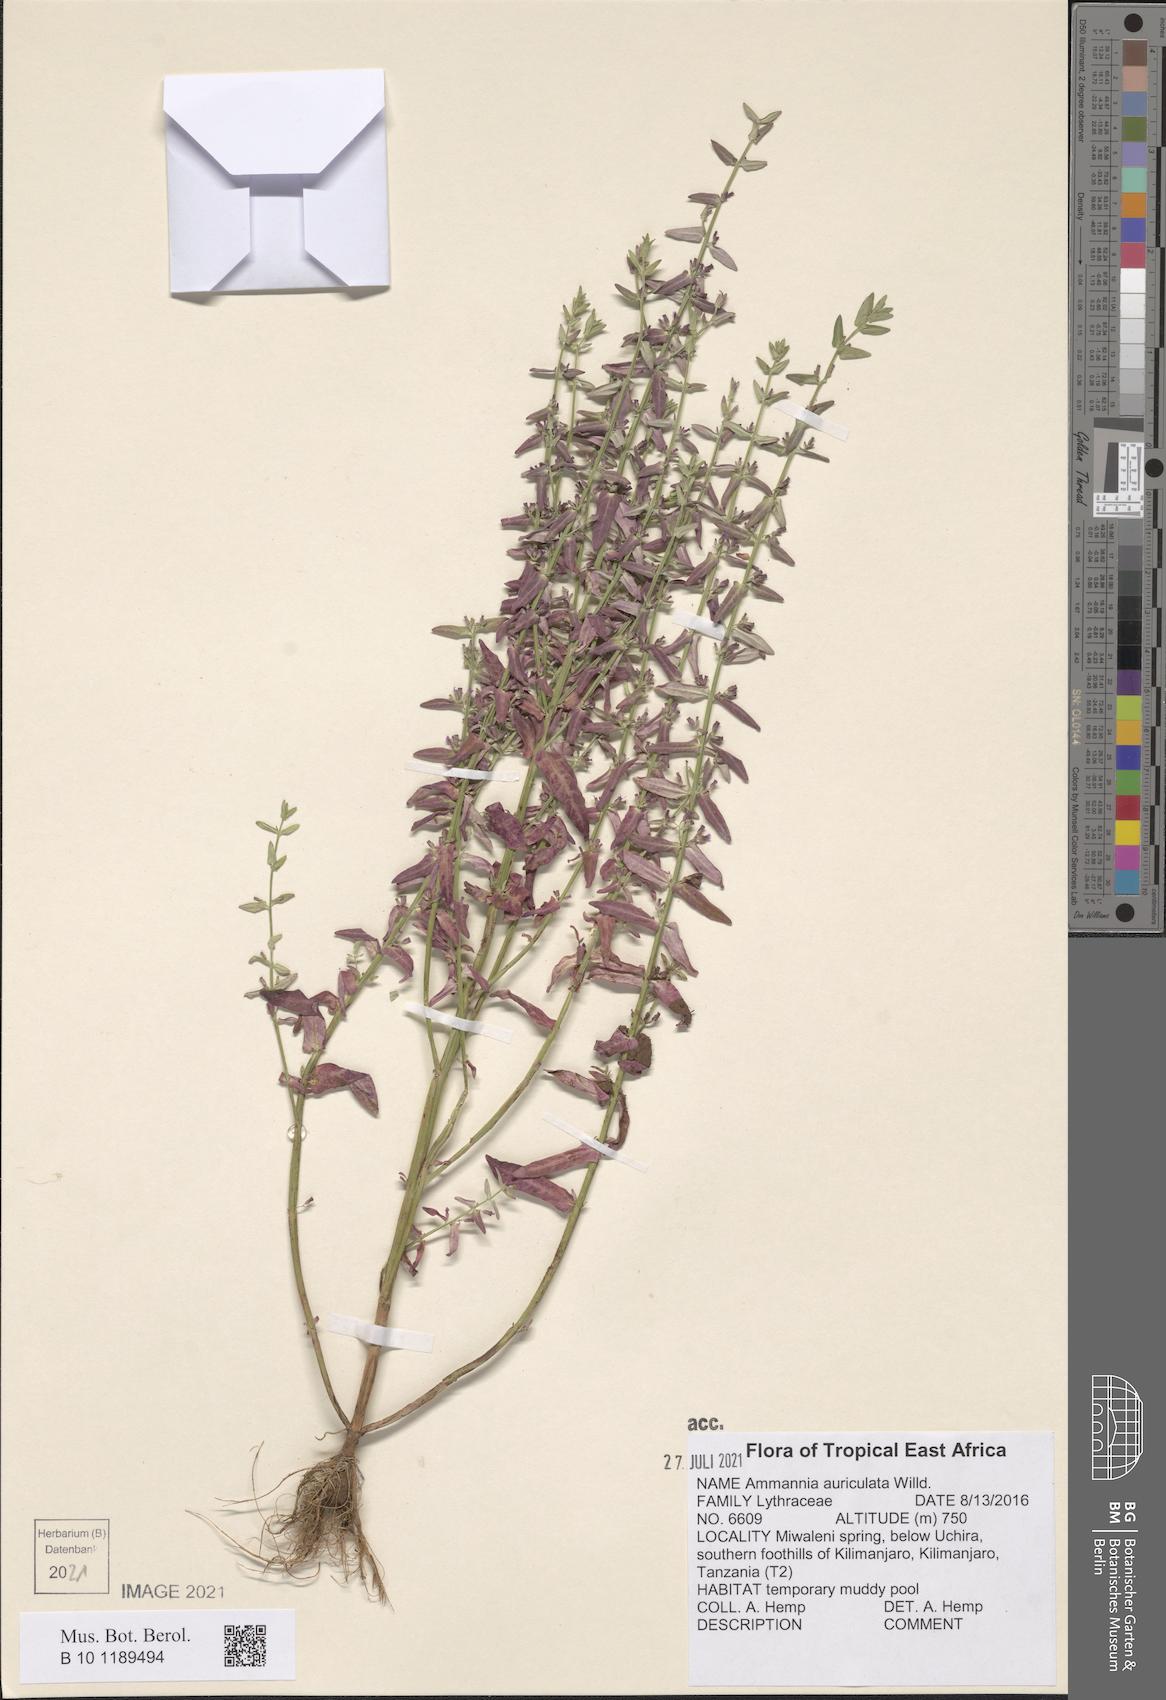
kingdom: Plantae
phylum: Tracheophyta
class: Magnoliopsida
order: Myrtales
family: Lythraceae
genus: Ammannia
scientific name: Ammannia auriculata
